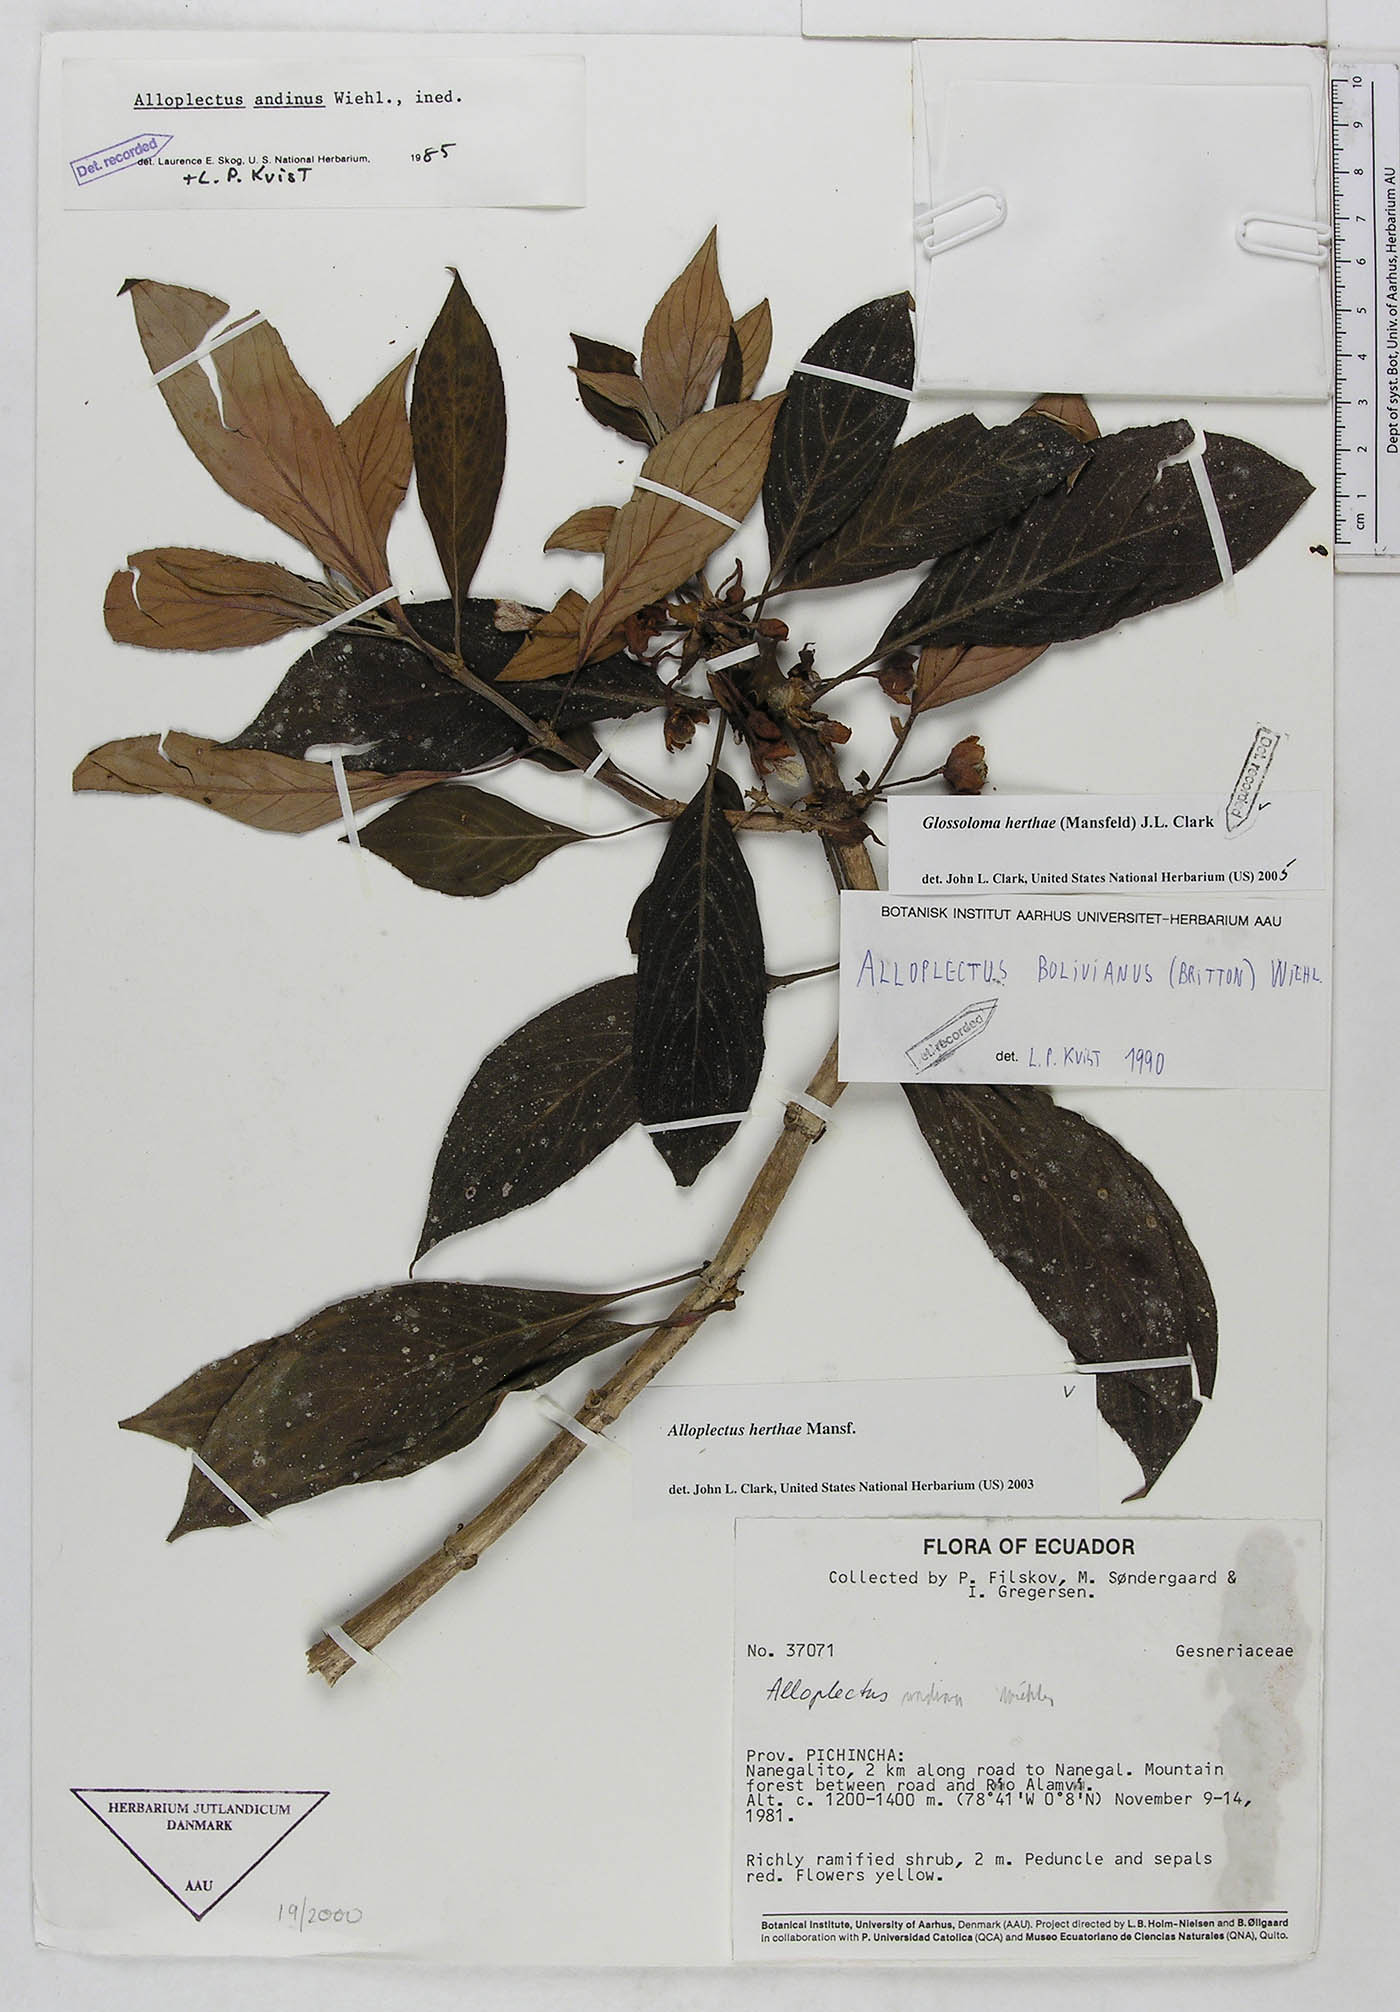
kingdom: Plantae
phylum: Tracheophyta
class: Magnoliopsida
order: Lamiales
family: Gesneriaceae
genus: Glossoloma
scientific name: Glossoloma herthae
